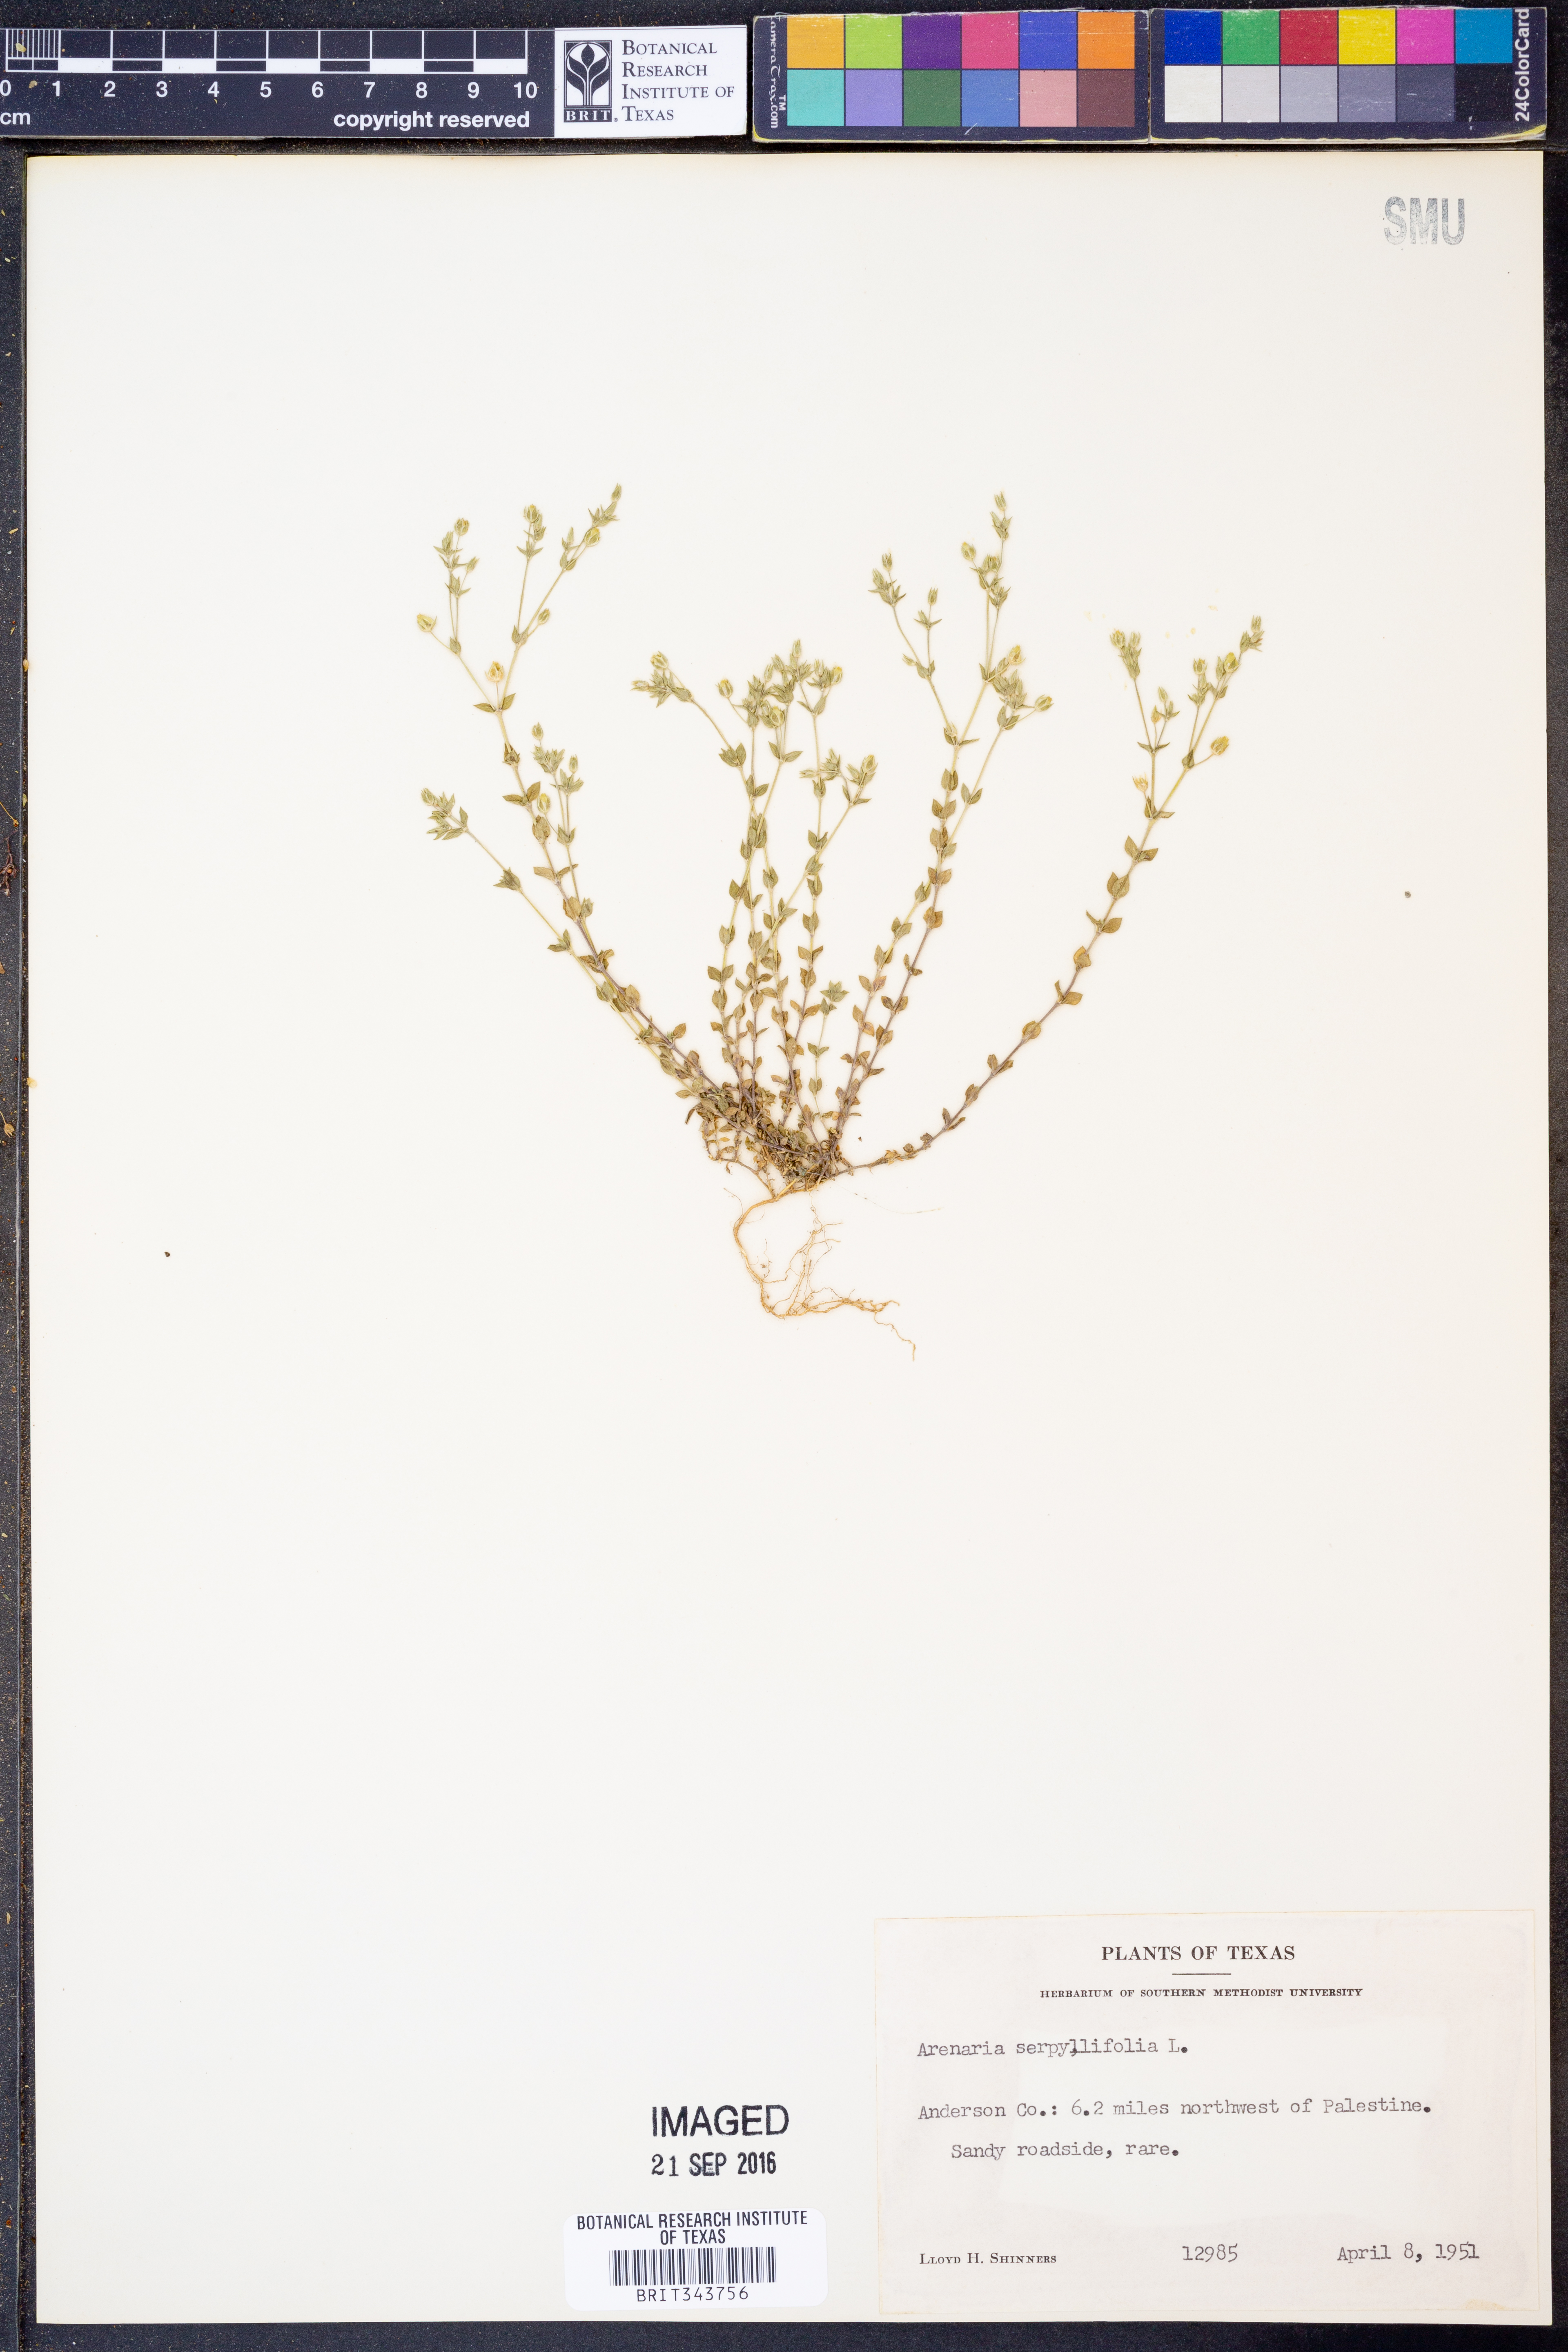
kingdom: Plantae
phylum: Tracheophyta
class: Magnoliopsida
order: Caryophyllales
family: Caryophyllaceae
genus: Arenaria
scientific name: Arenaria serpyllifolia
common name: Thyme-leaved sandwort
